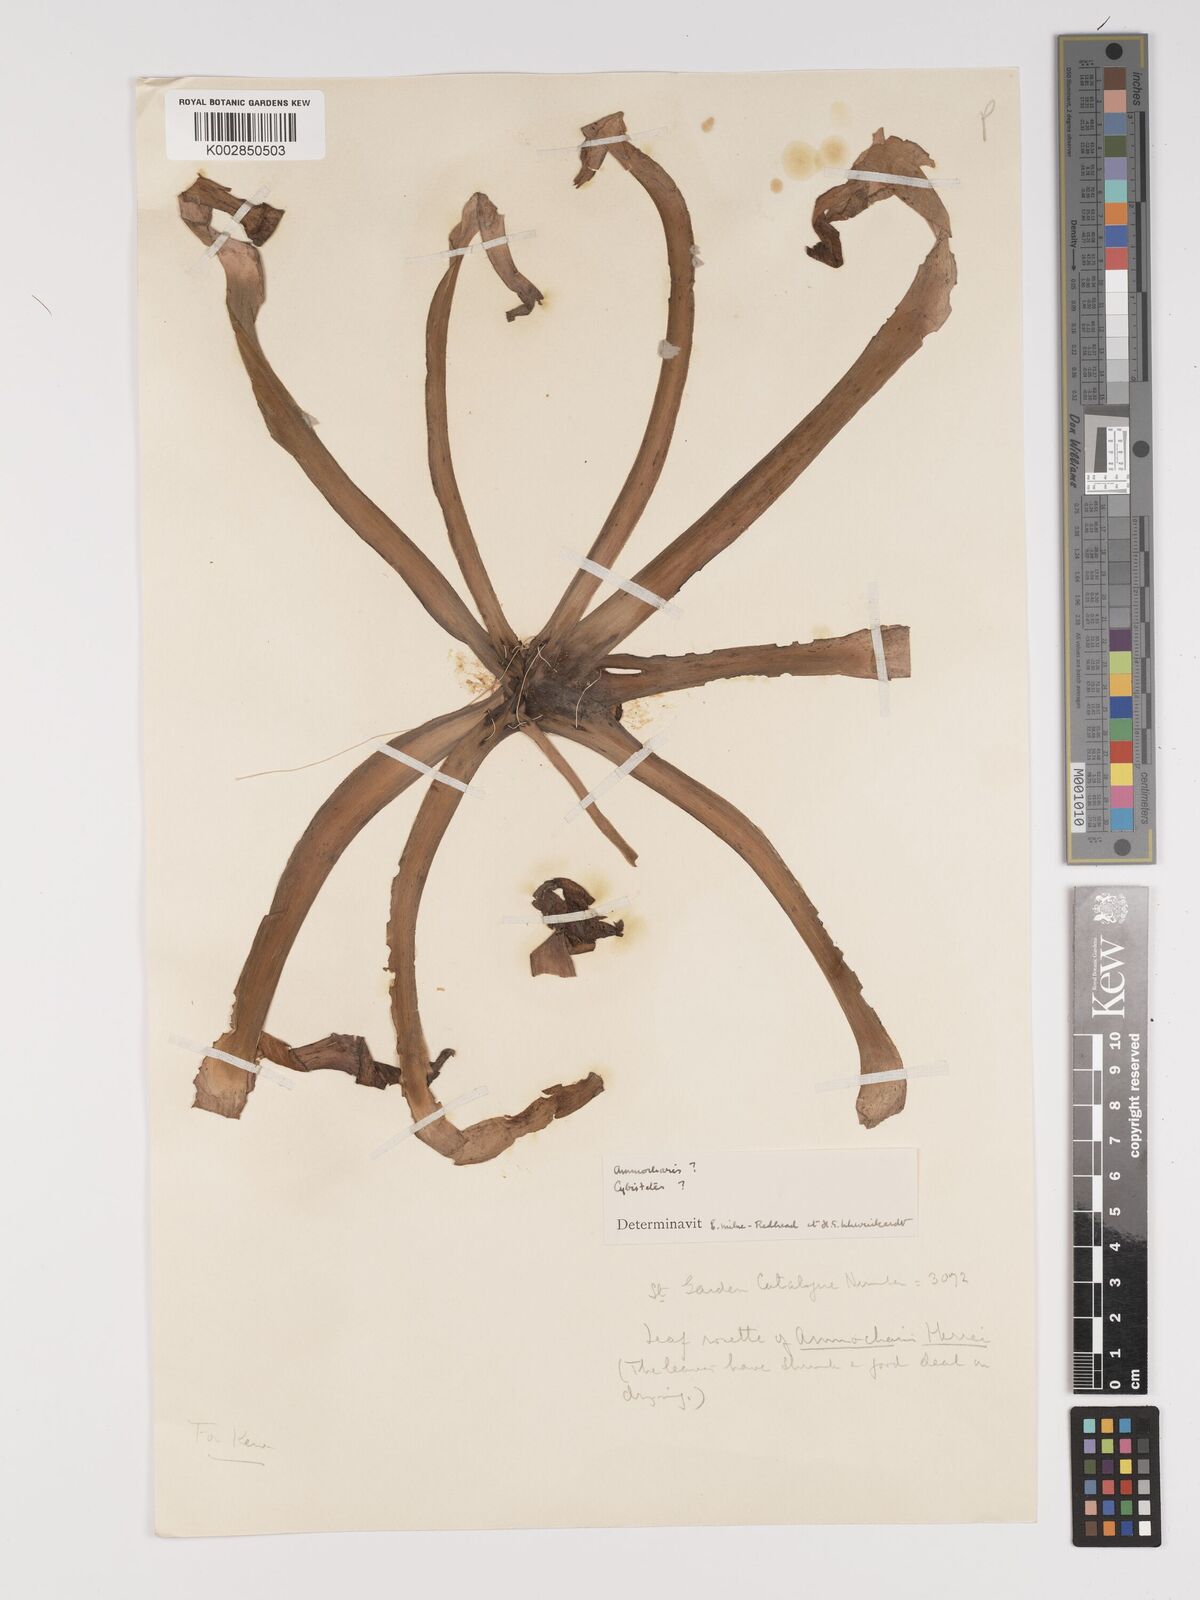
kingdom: Plantae
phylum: Tracheophyta
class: Liliopsida
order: Asparagales
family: Amaryllidaceae
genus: Ammocharis
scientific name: Ammocharis longifolia
